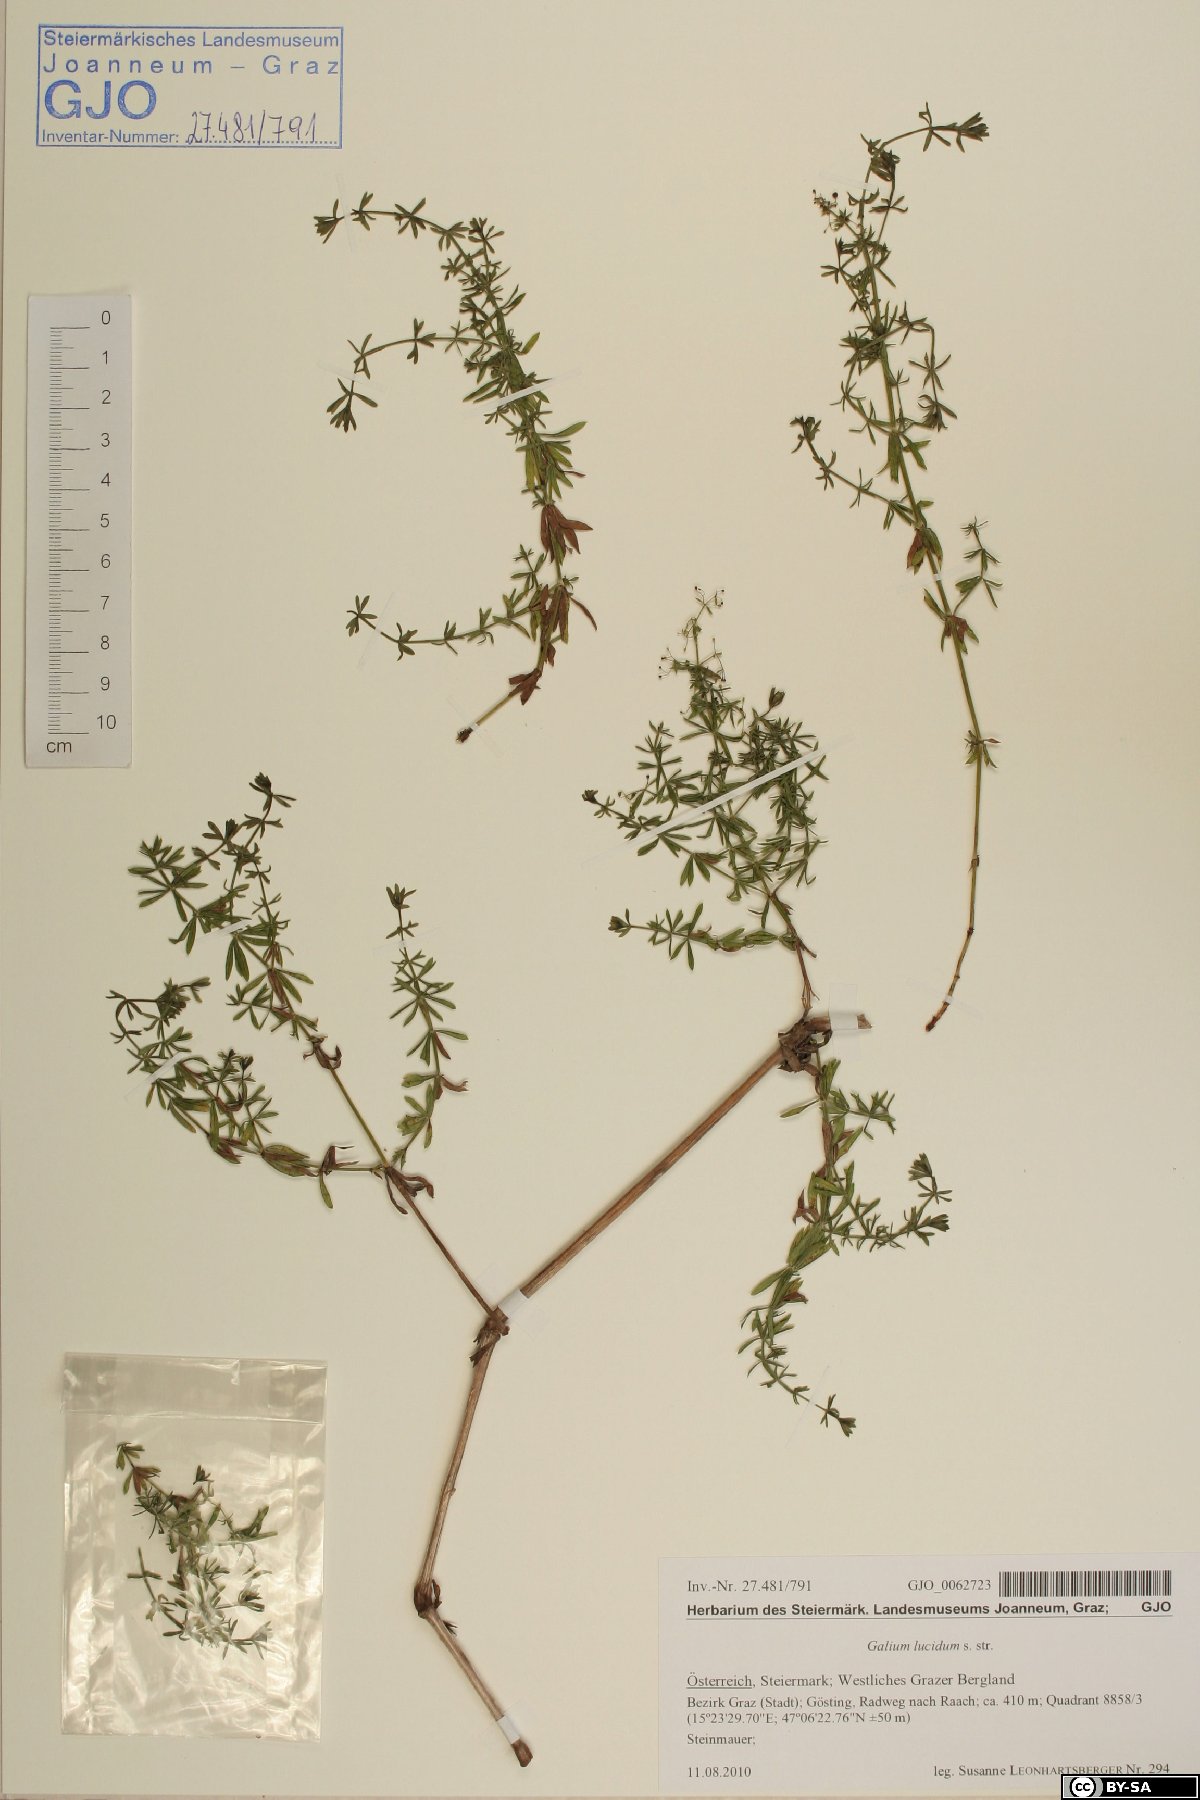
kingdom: Plantae
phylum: Tracheophyta
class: Magnoliopsida
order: Gentianales
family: Rubiaceae
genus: Galium
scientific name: Galium lucidum
